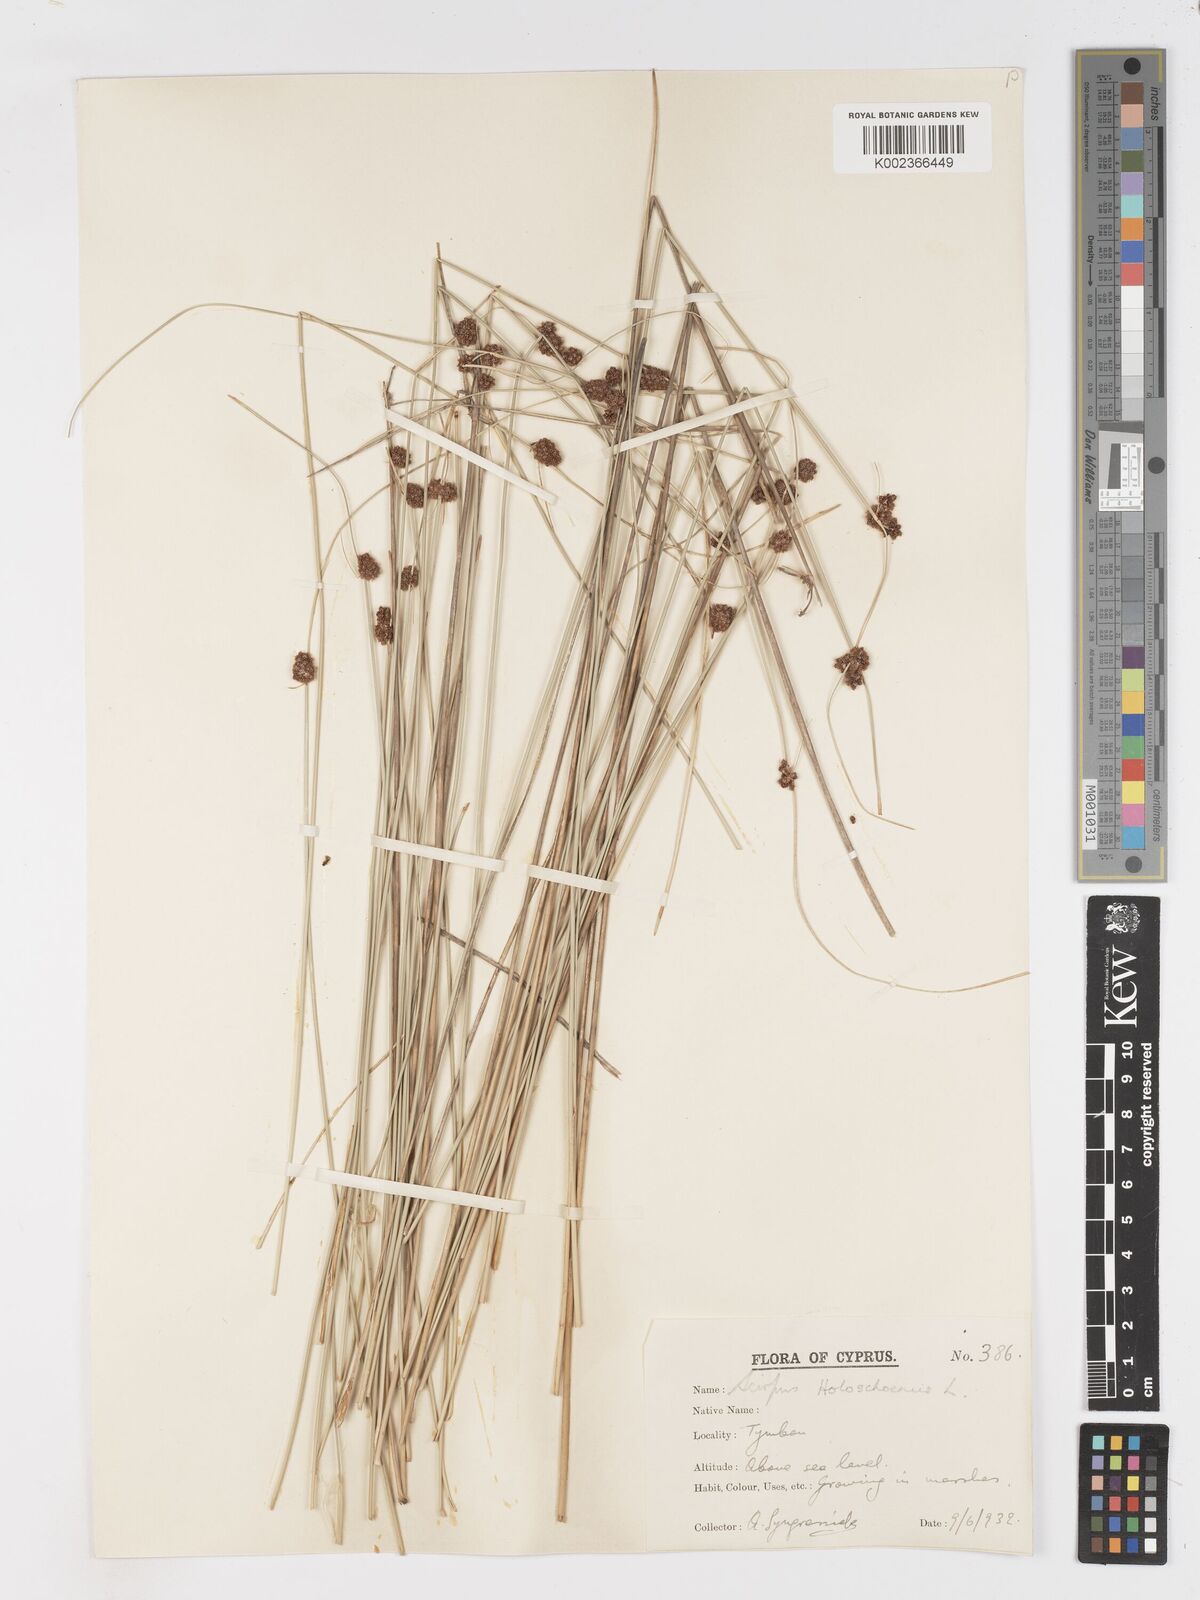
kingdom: Plantae
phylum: Tracheophyta
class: Liliopsida
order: Poales
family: Cyperaceae
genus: Scirpoides
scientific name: Scirpoides holoschoenus
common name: Round-headed club-rush
